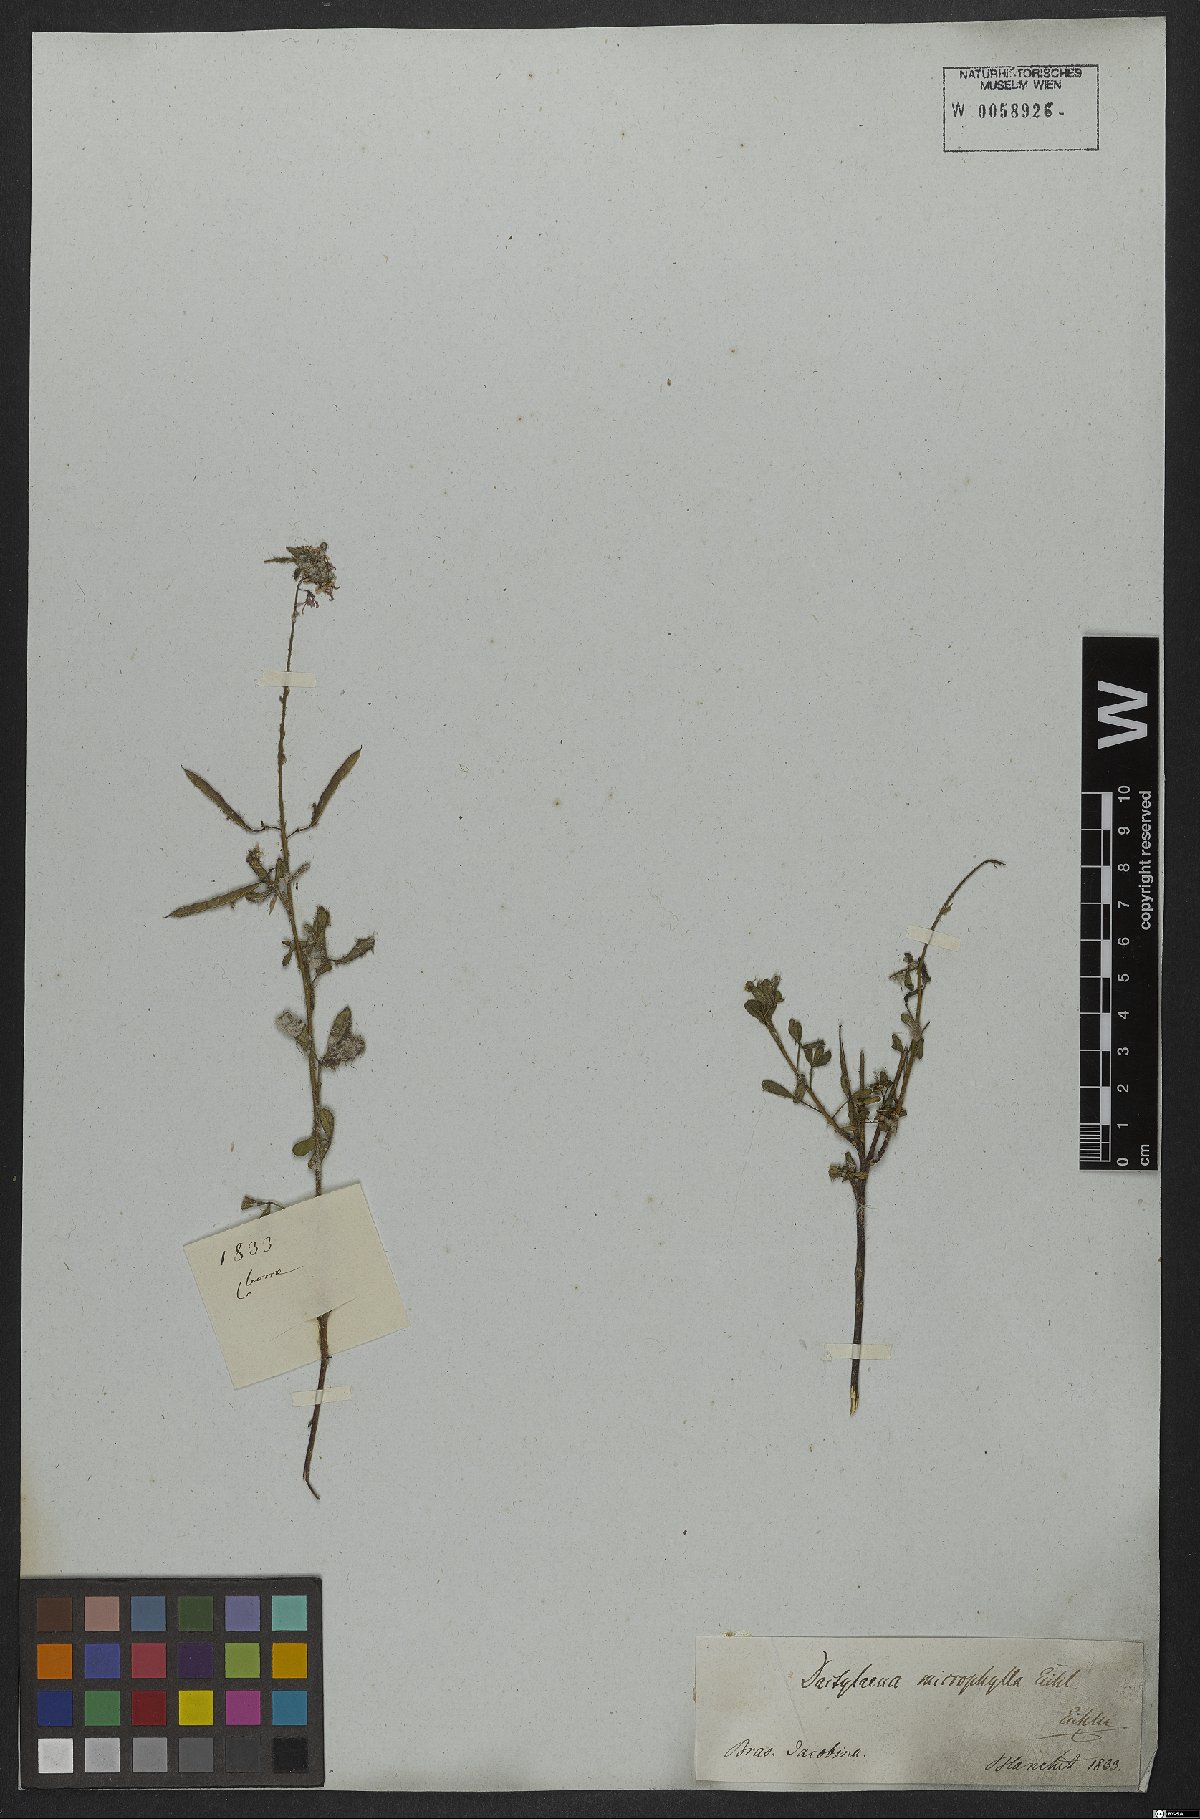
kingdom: Plantae
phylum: Tracheophyta
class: Magnoliopsida
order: Brassicales
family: Cleomaceae
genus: Dactylaena
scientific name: Dactylaena microphylla
